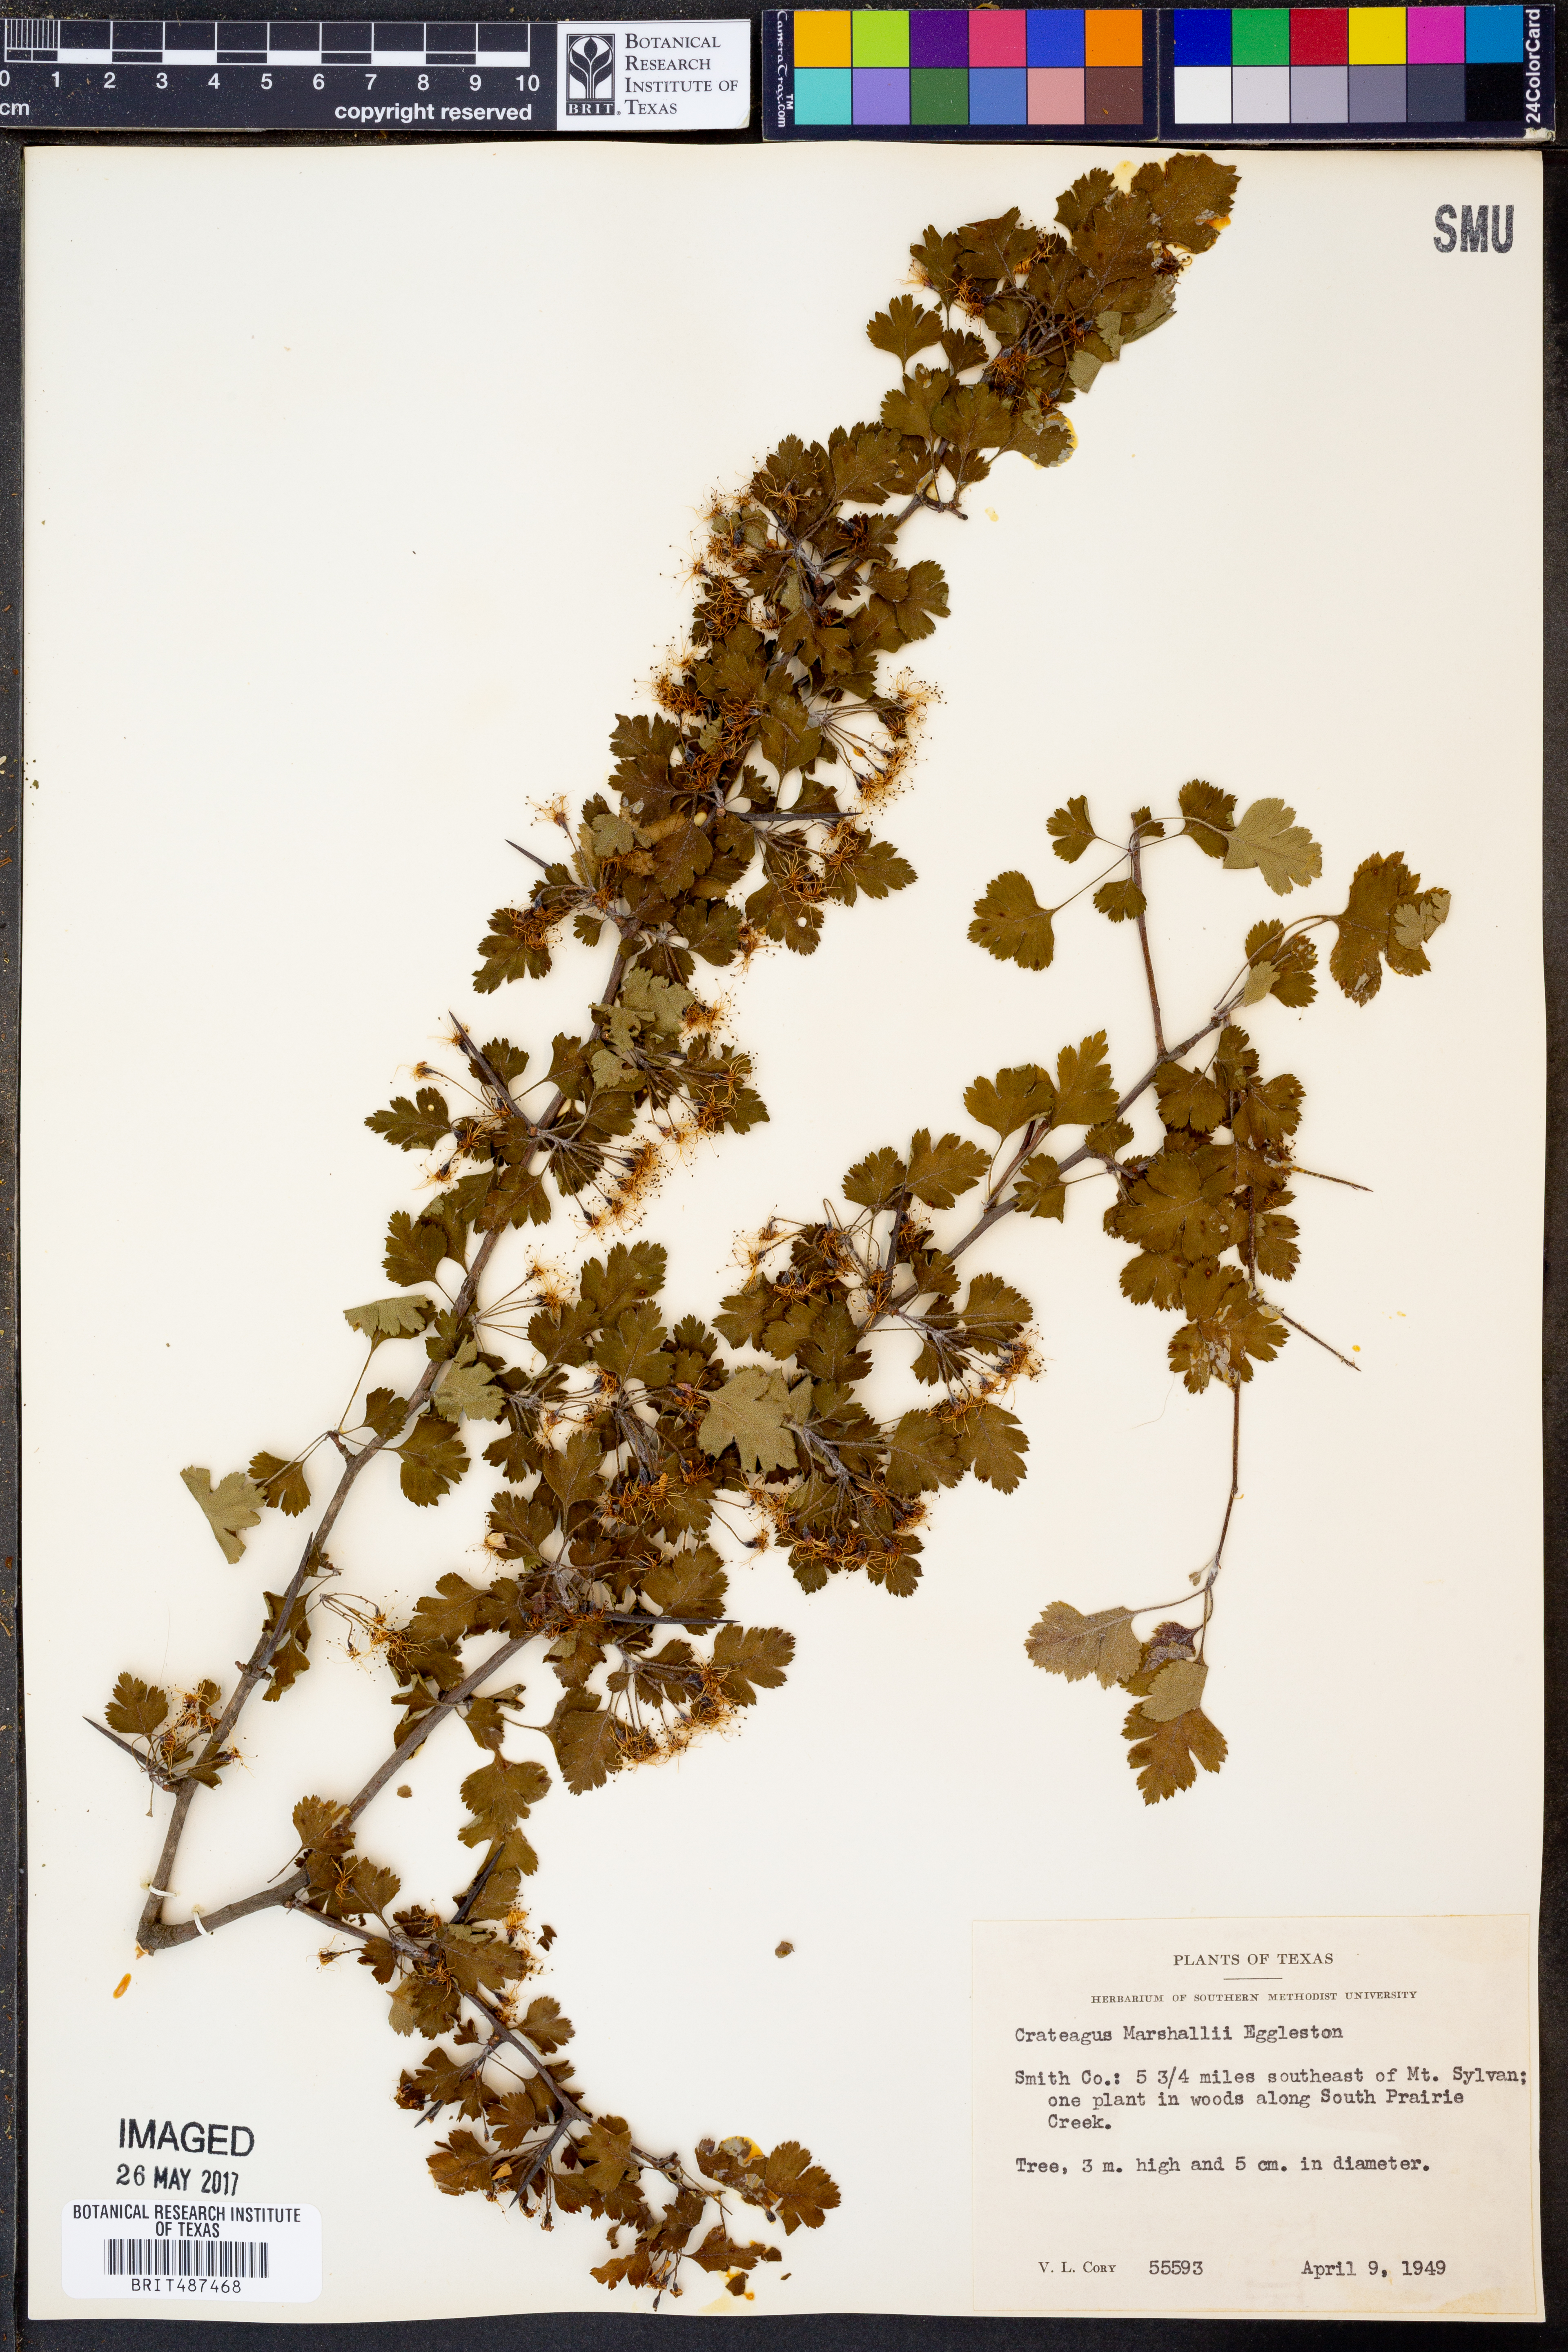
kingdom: Plantae
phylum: Tracheophyta
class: Magnoliopsida
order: Rosales
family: Rosaceae
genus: Crataegus
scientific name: Crataegus marshallii
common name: Parsley-hawthorn
